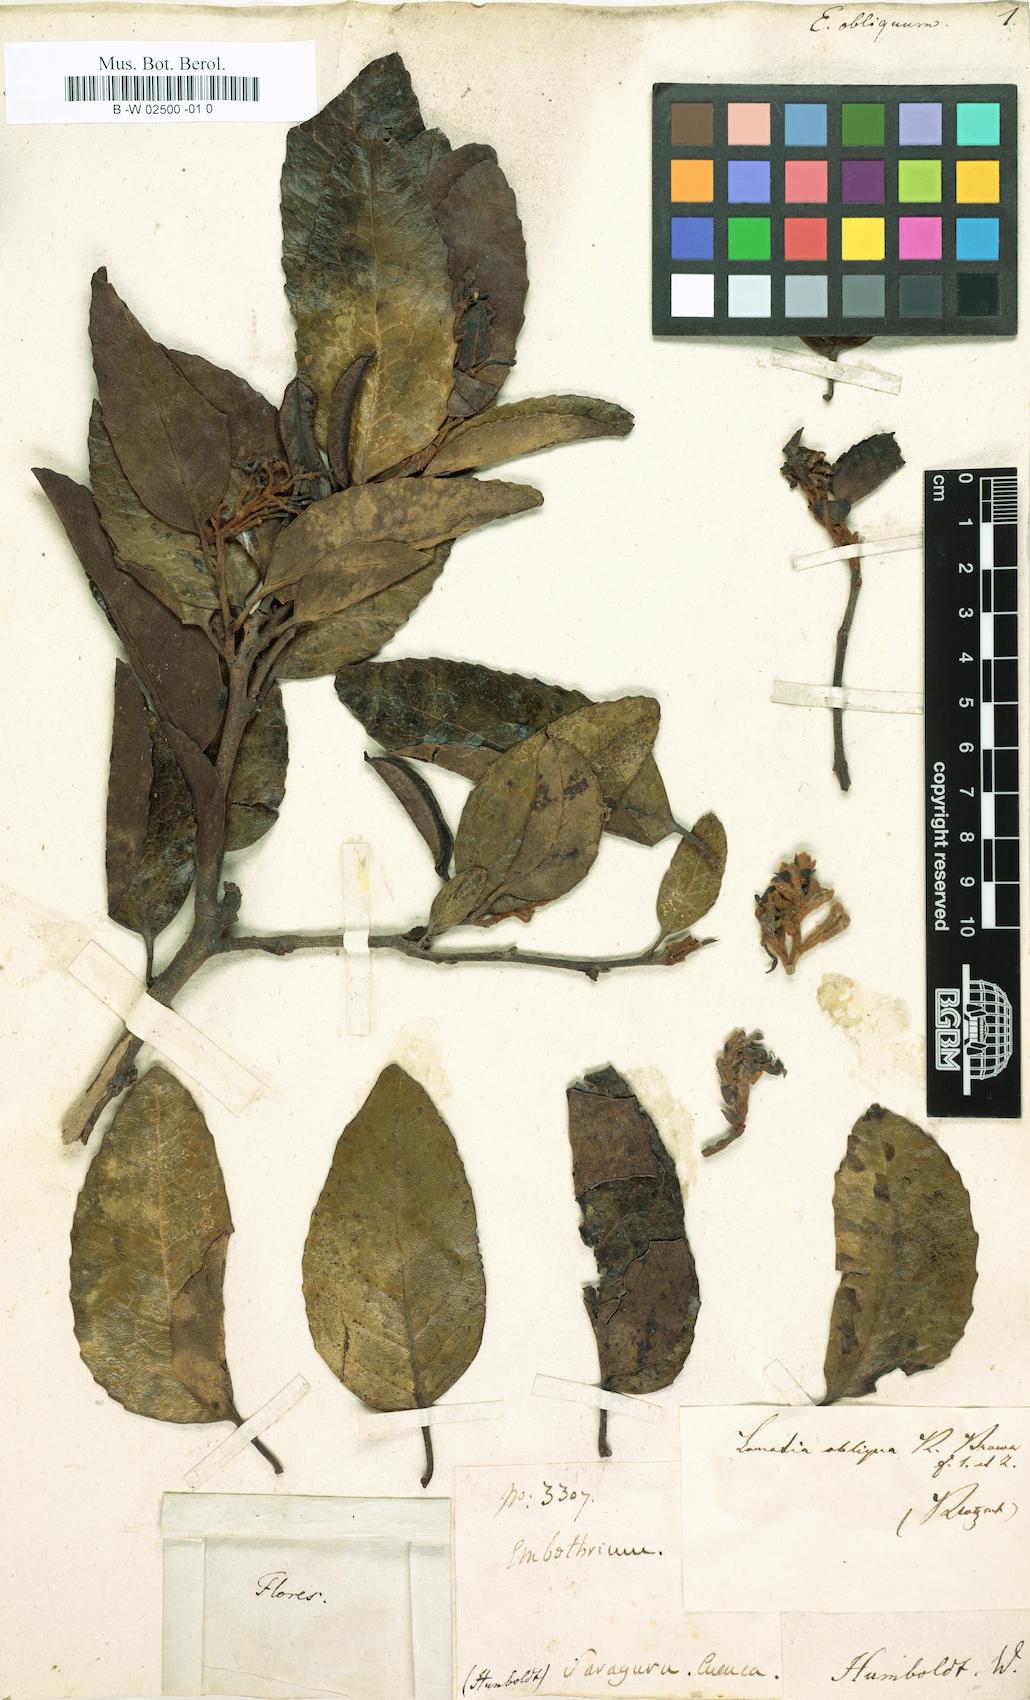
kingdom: Plantae
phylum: Tracheophyta
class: Magnoliopsida
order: Proteales
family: Proteaceae
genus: Lomatia
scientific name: Lomatia hirsuta
